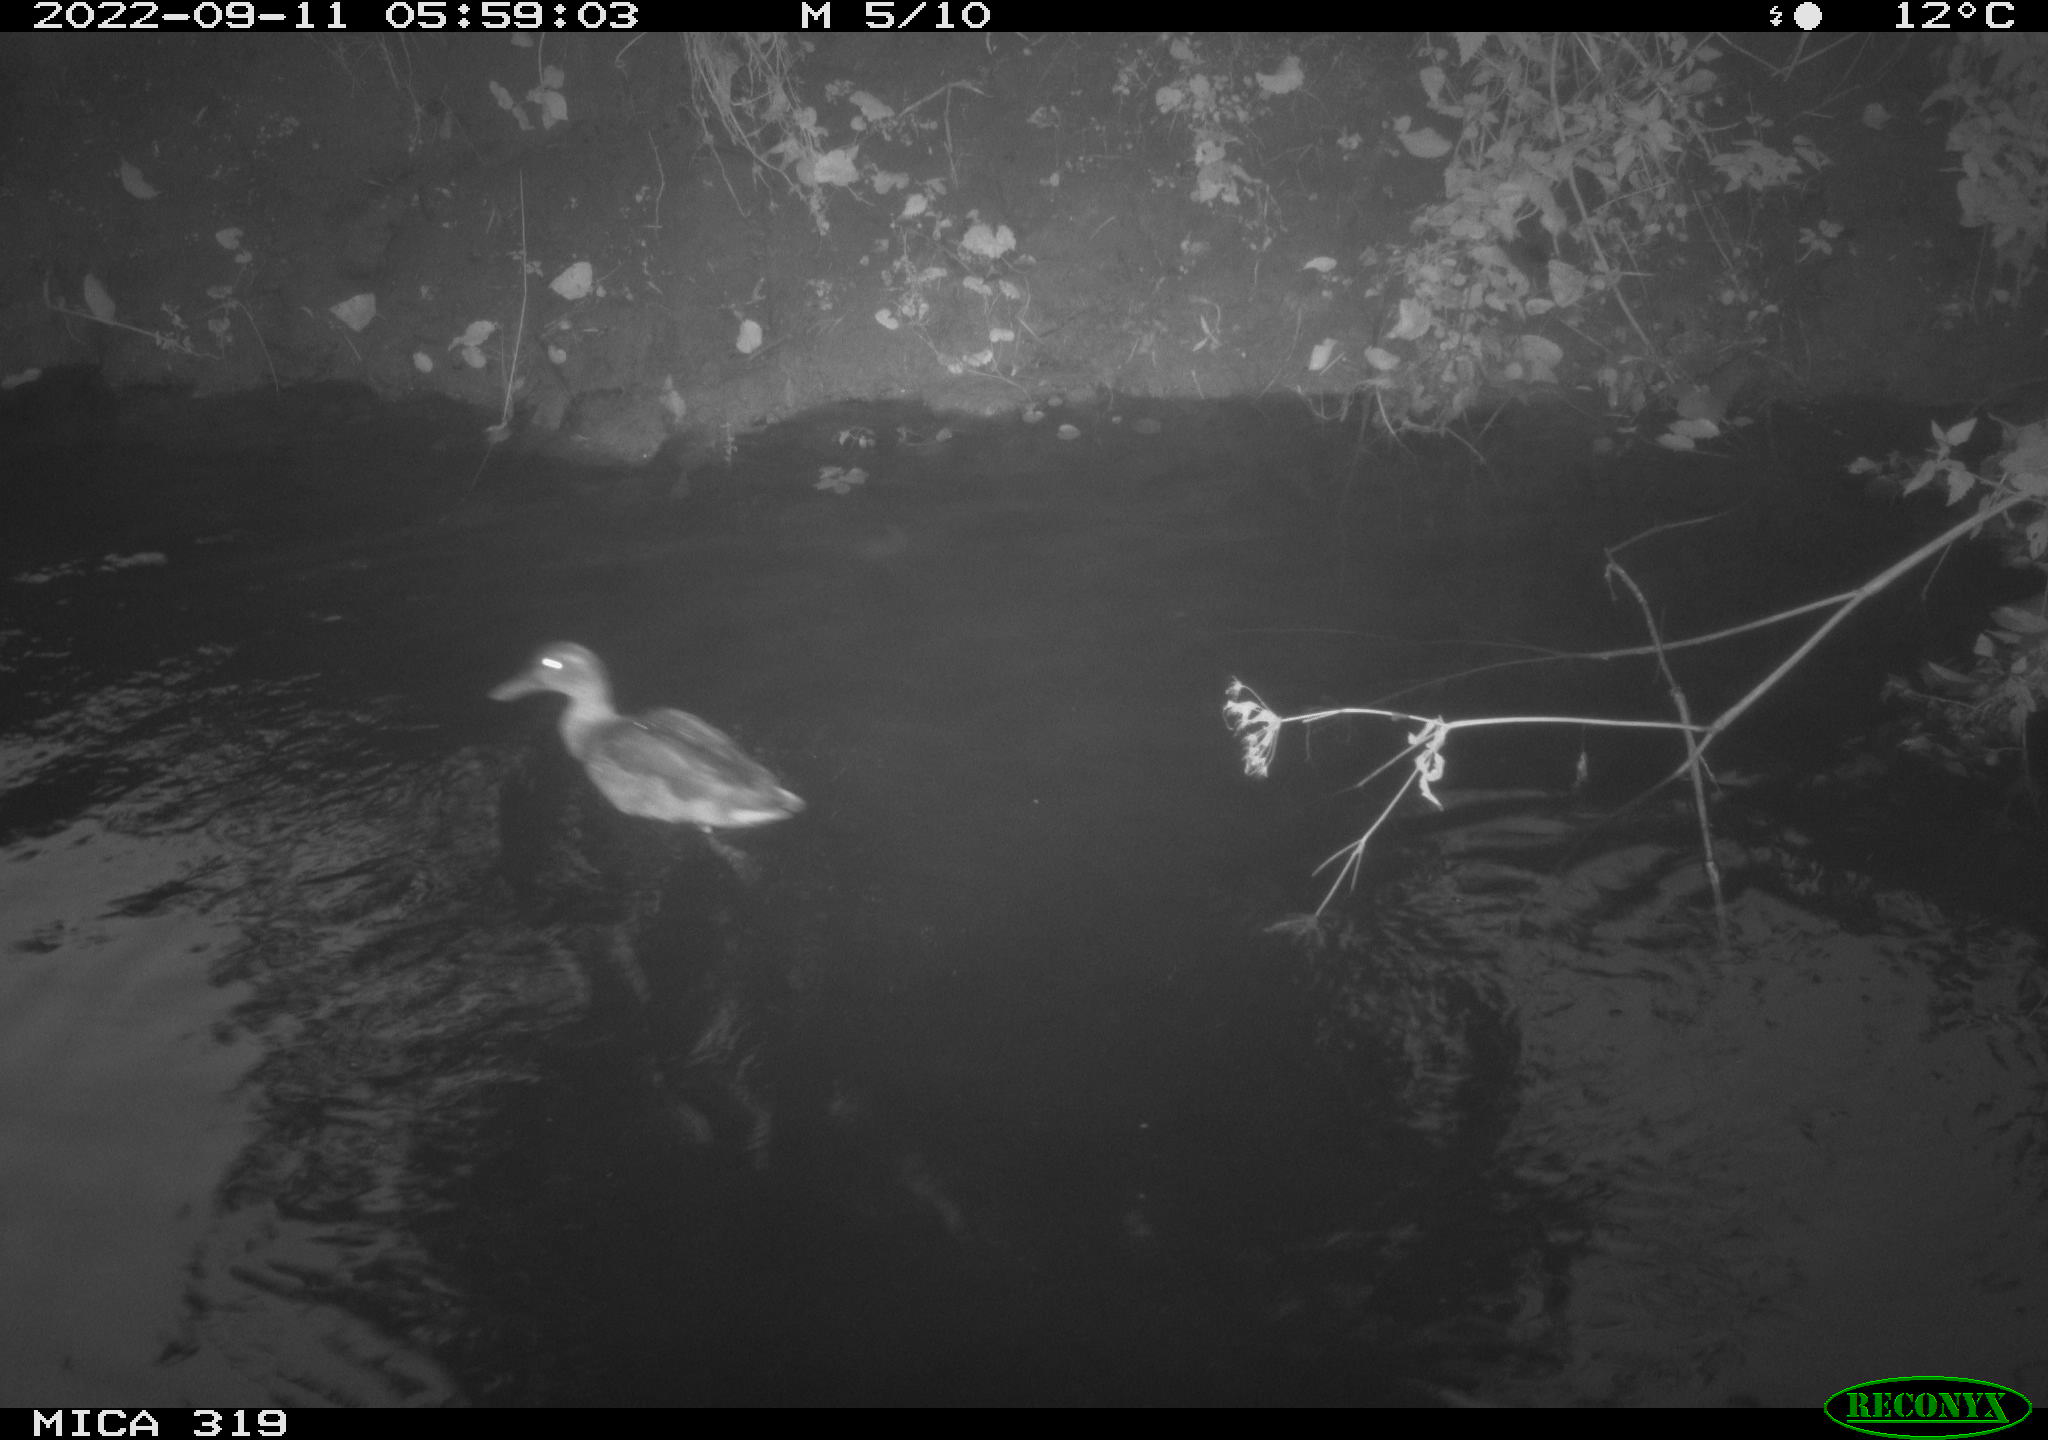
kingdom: Animalia
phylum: Chordata
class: Aves
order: Anseriformes
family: Anatidae
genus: Anas
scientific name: Anas
